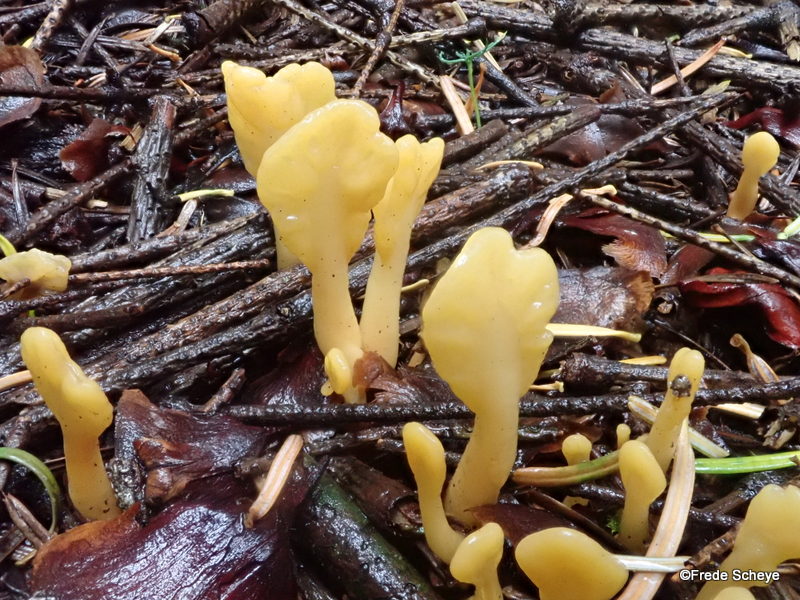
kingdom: Fungi
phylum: Ascomycota
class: Leotiomycetes
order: Rhytismatales
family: Cudoniaceae
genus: Spathularia
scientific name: Spathularia flavida
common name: gul spatelsvamp
